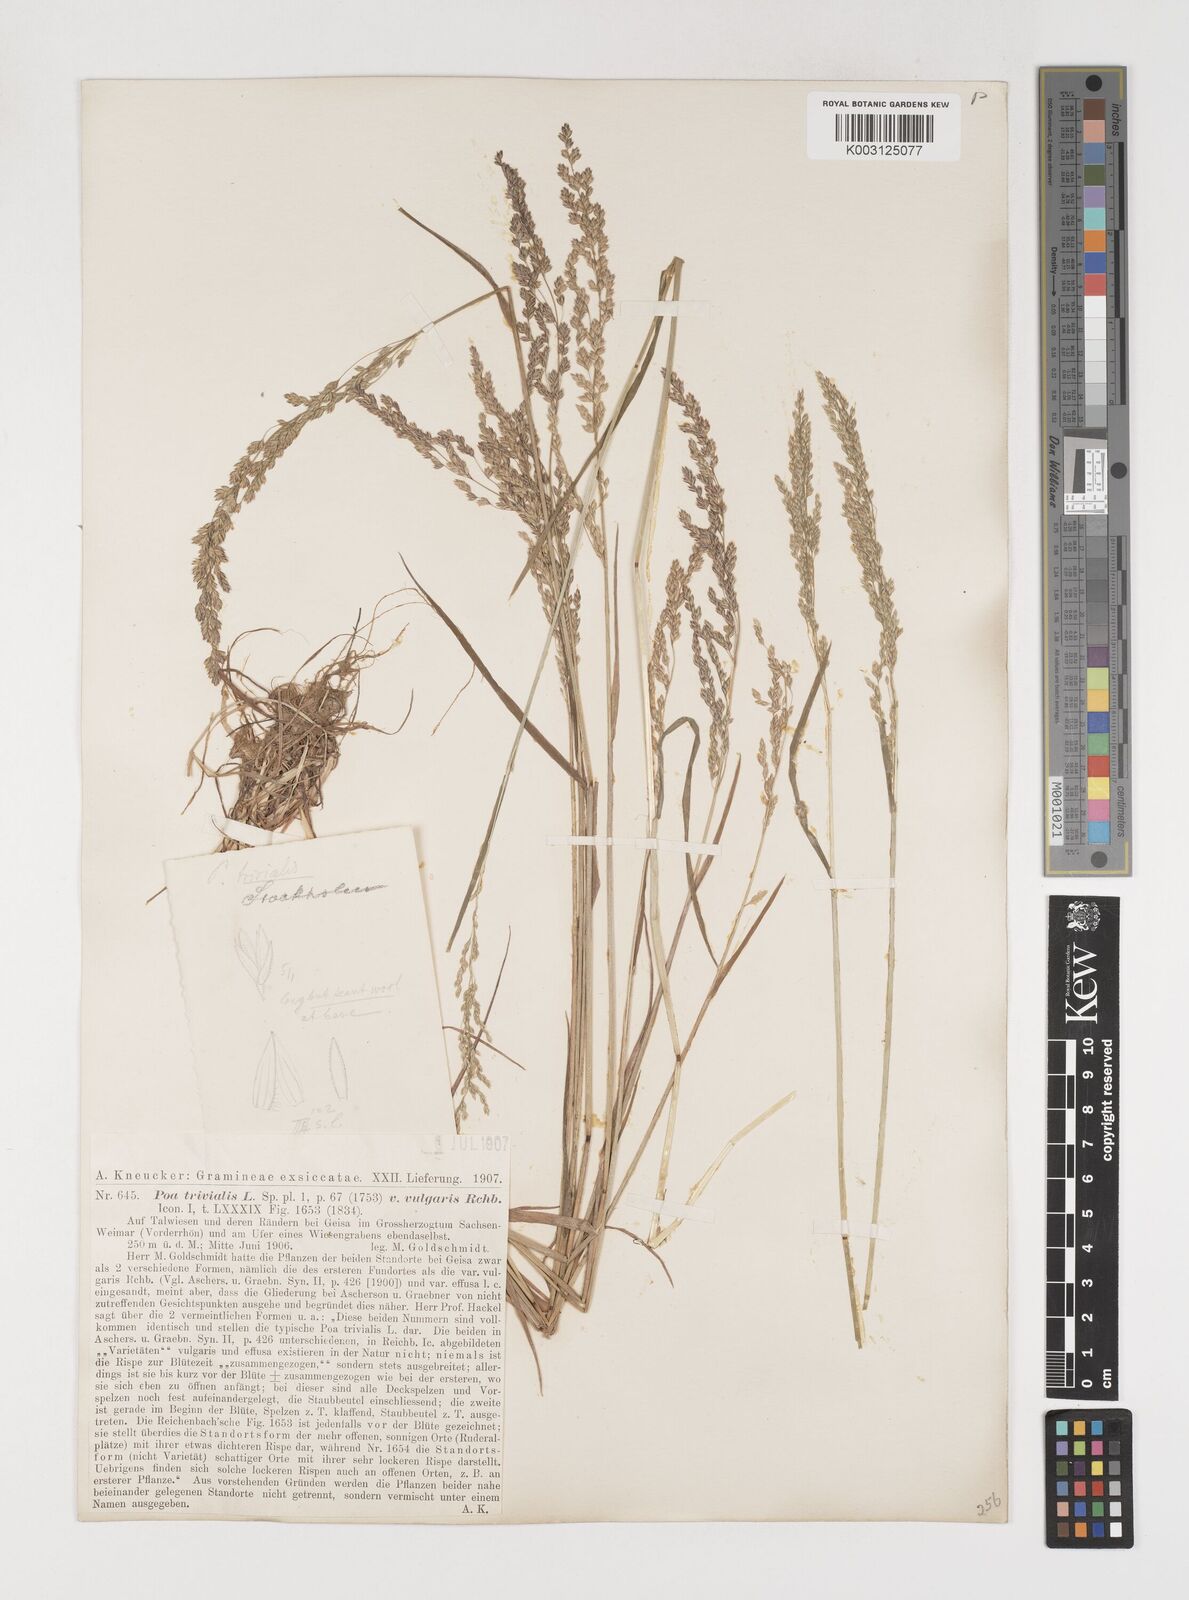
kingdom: Plantae
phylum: Tracheophyta
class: Liliopsida
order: Poales
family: Poaceae
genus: Poa
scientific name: Poa trivialis
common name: Rough bluegrass
